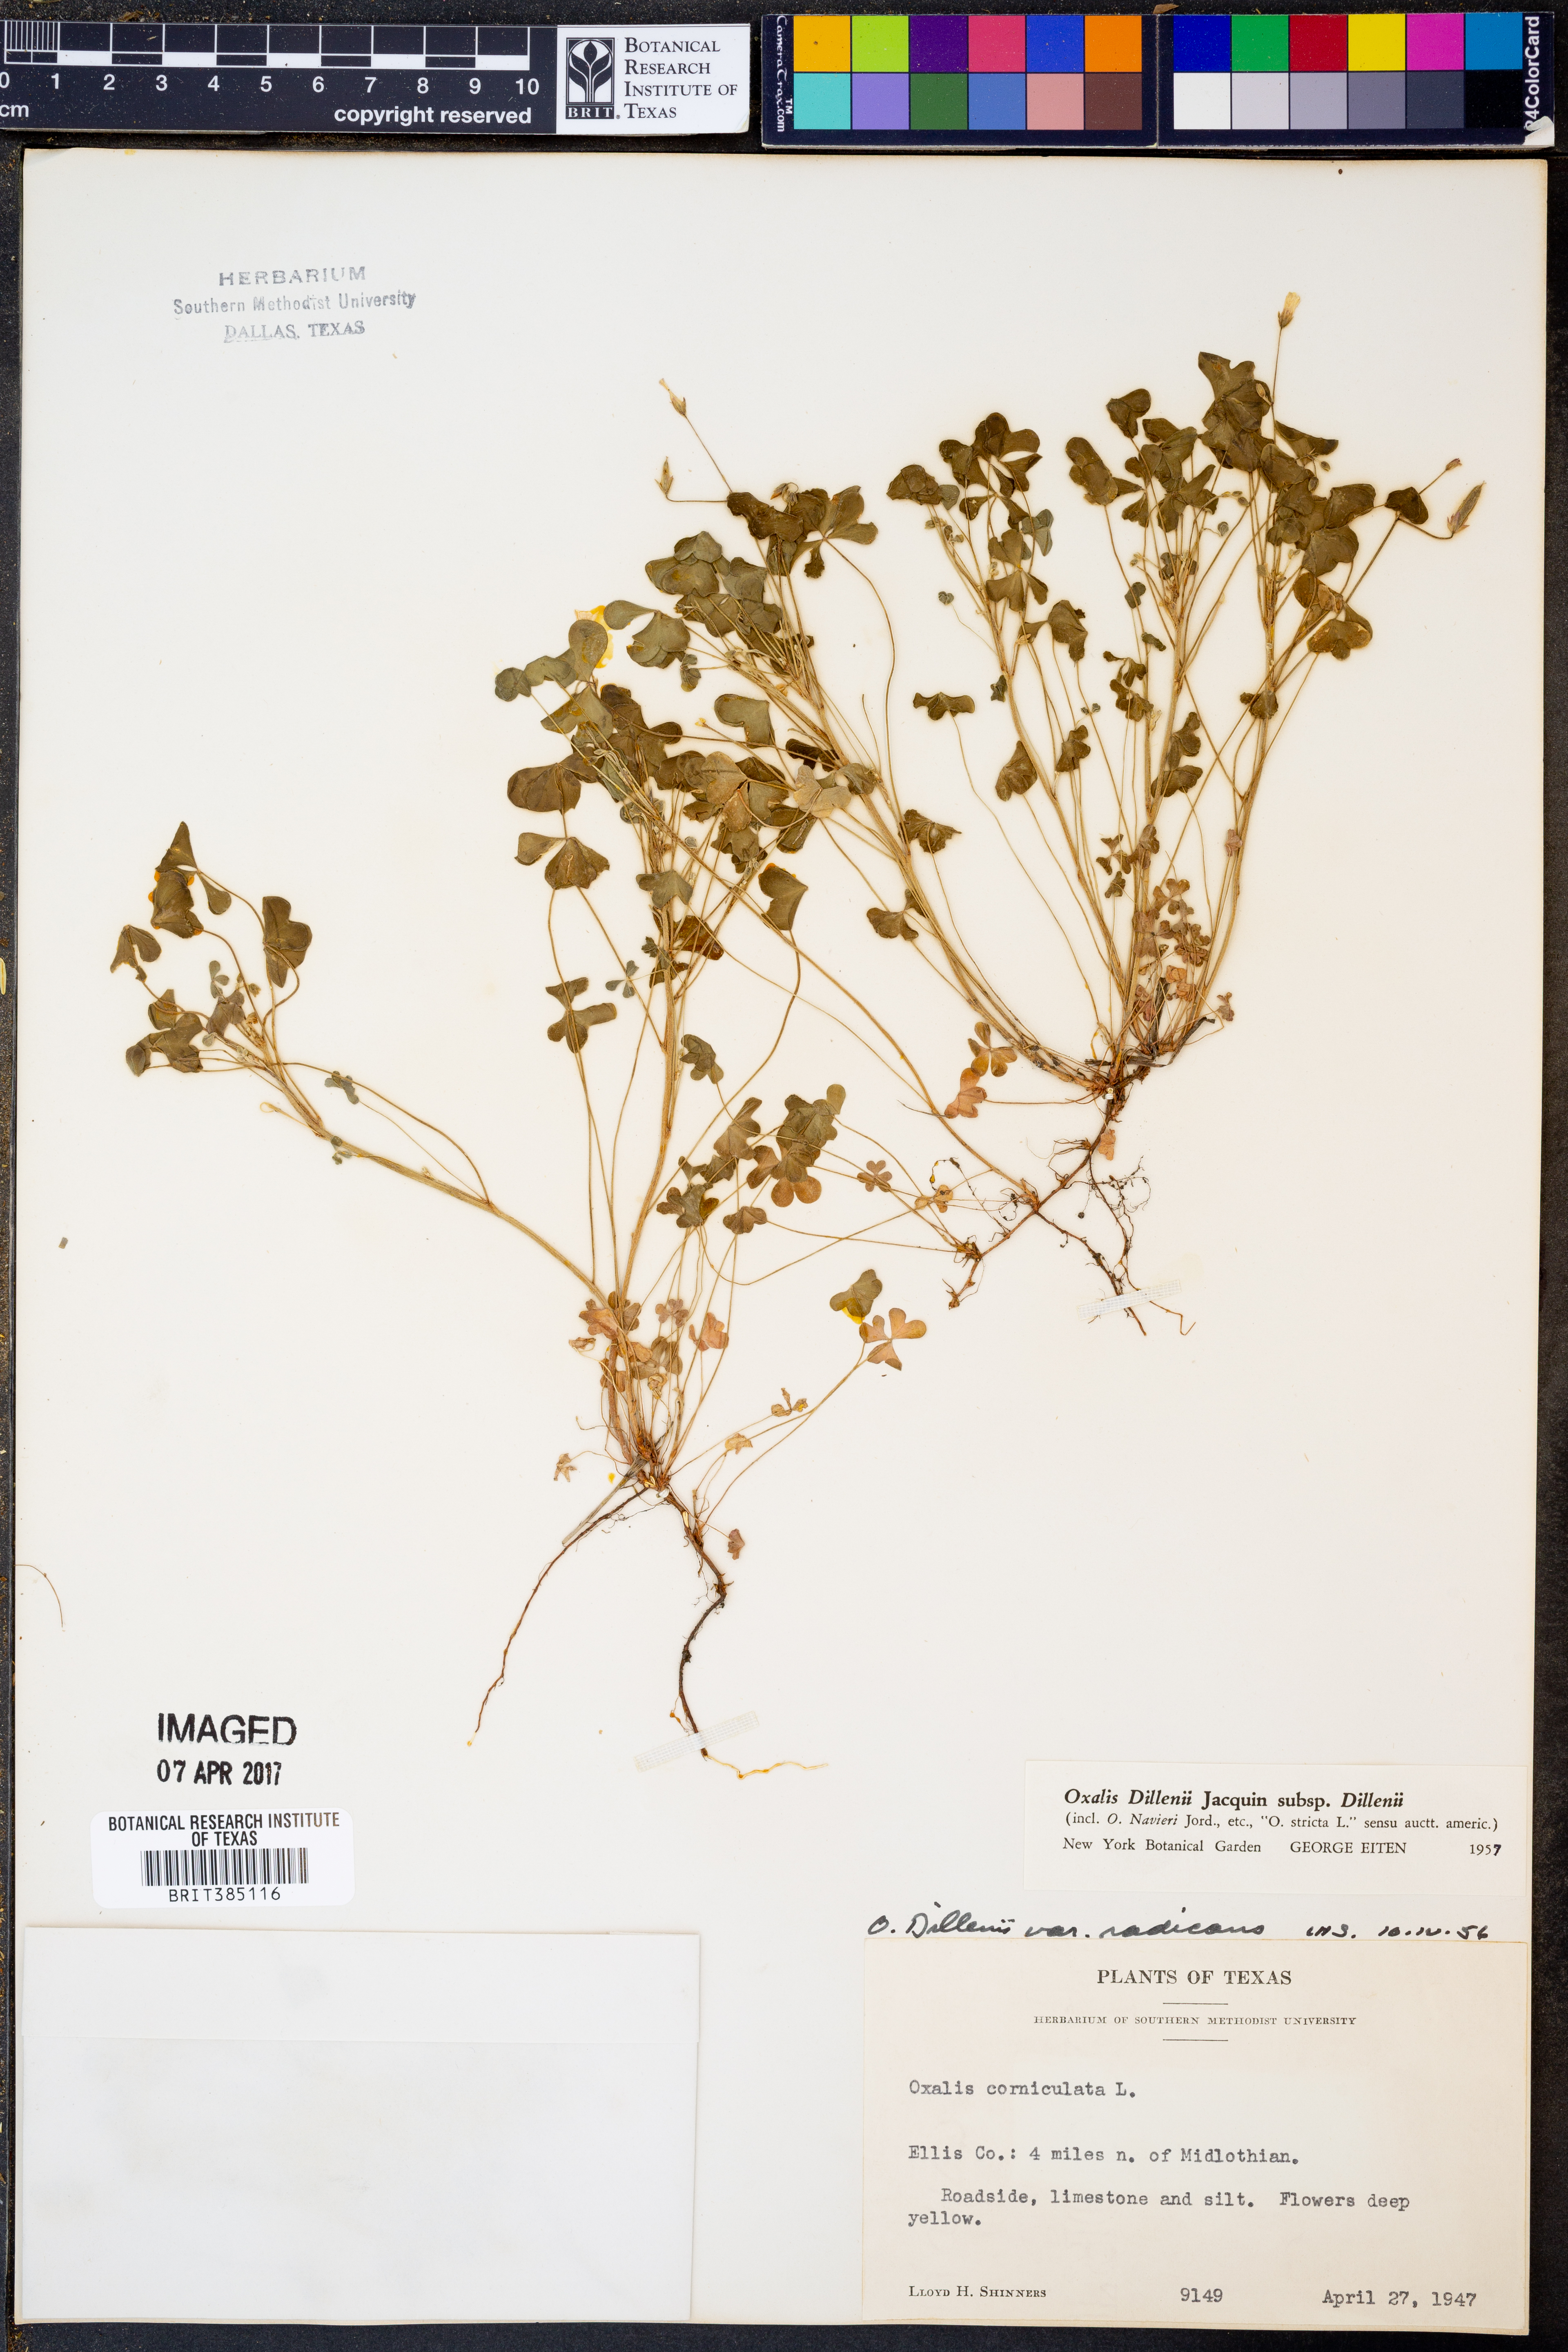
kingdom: Plantae
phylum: Tracheophyta
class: Magnoliopsida
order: Oxalidales
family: Oxalidaceae
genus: Oxalis
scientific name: Oxalis dillenii
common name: Sussex yellow-sorrel
